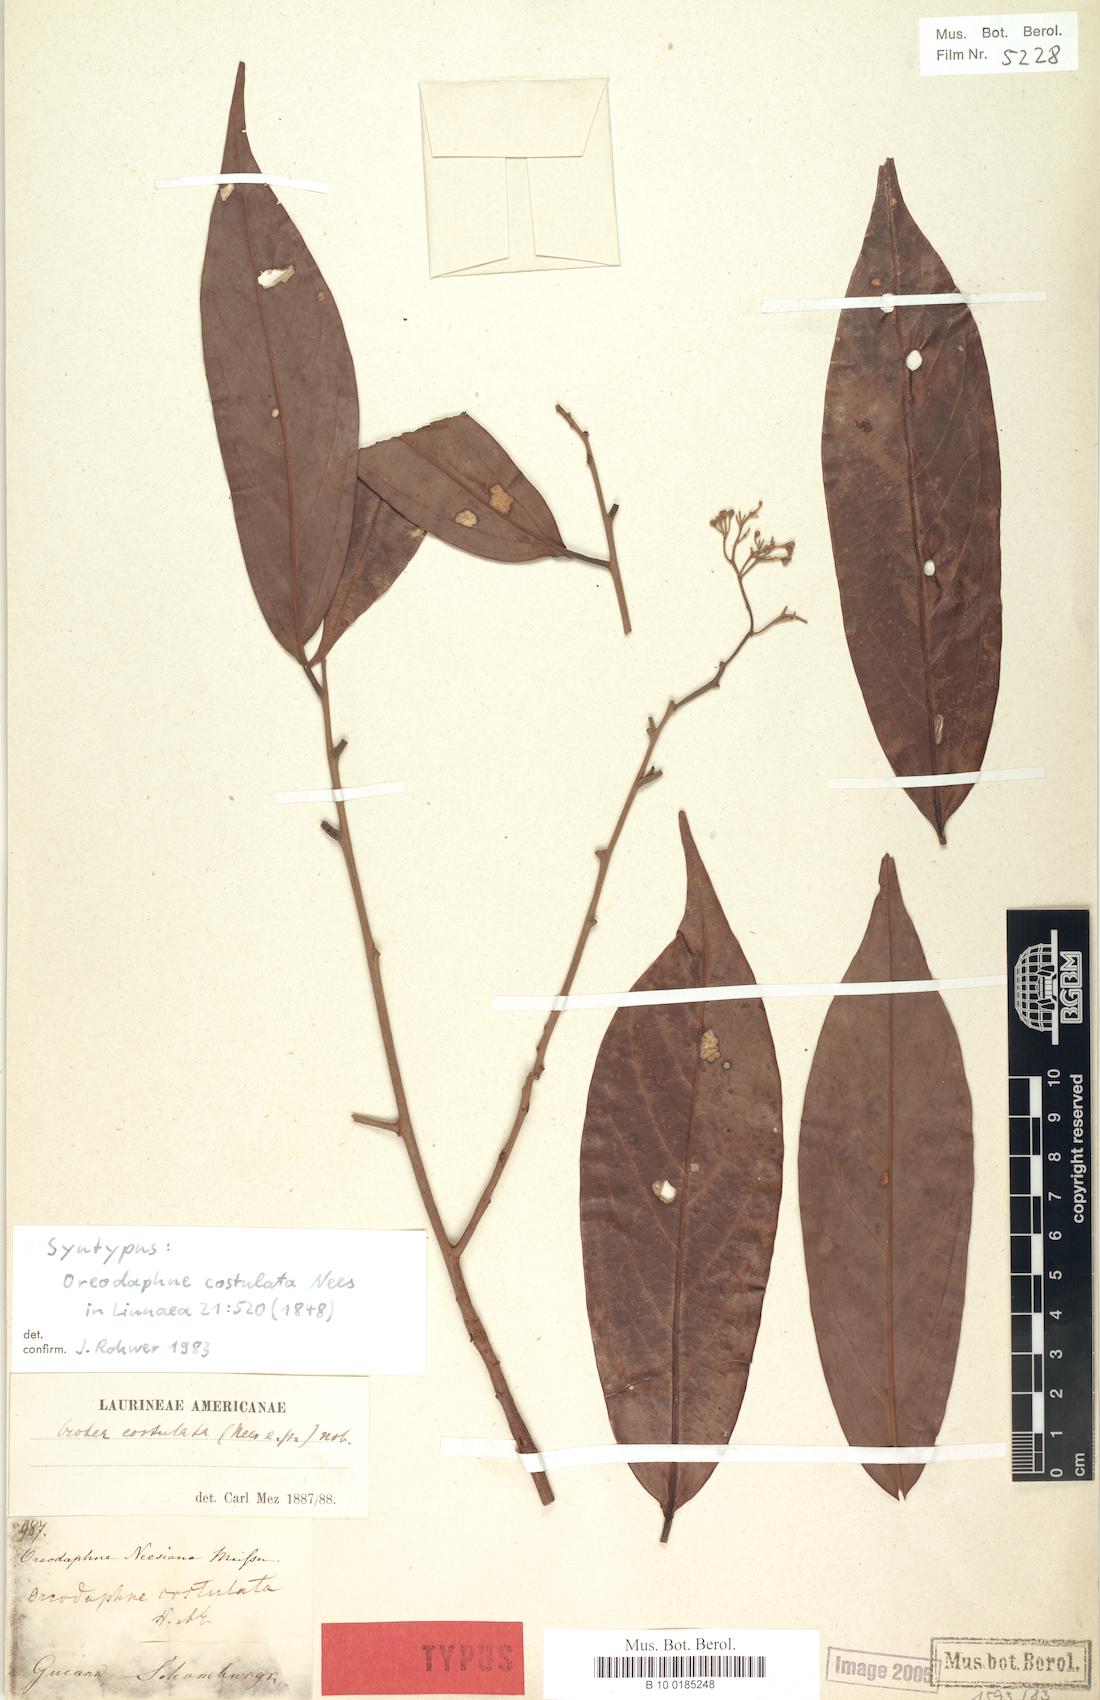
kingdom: Plantae
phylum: Tracheophyta
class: Magnoliopsida
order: Laurales
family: Lauraceae
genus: Ocotea
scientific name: Ocotea aciphylla
